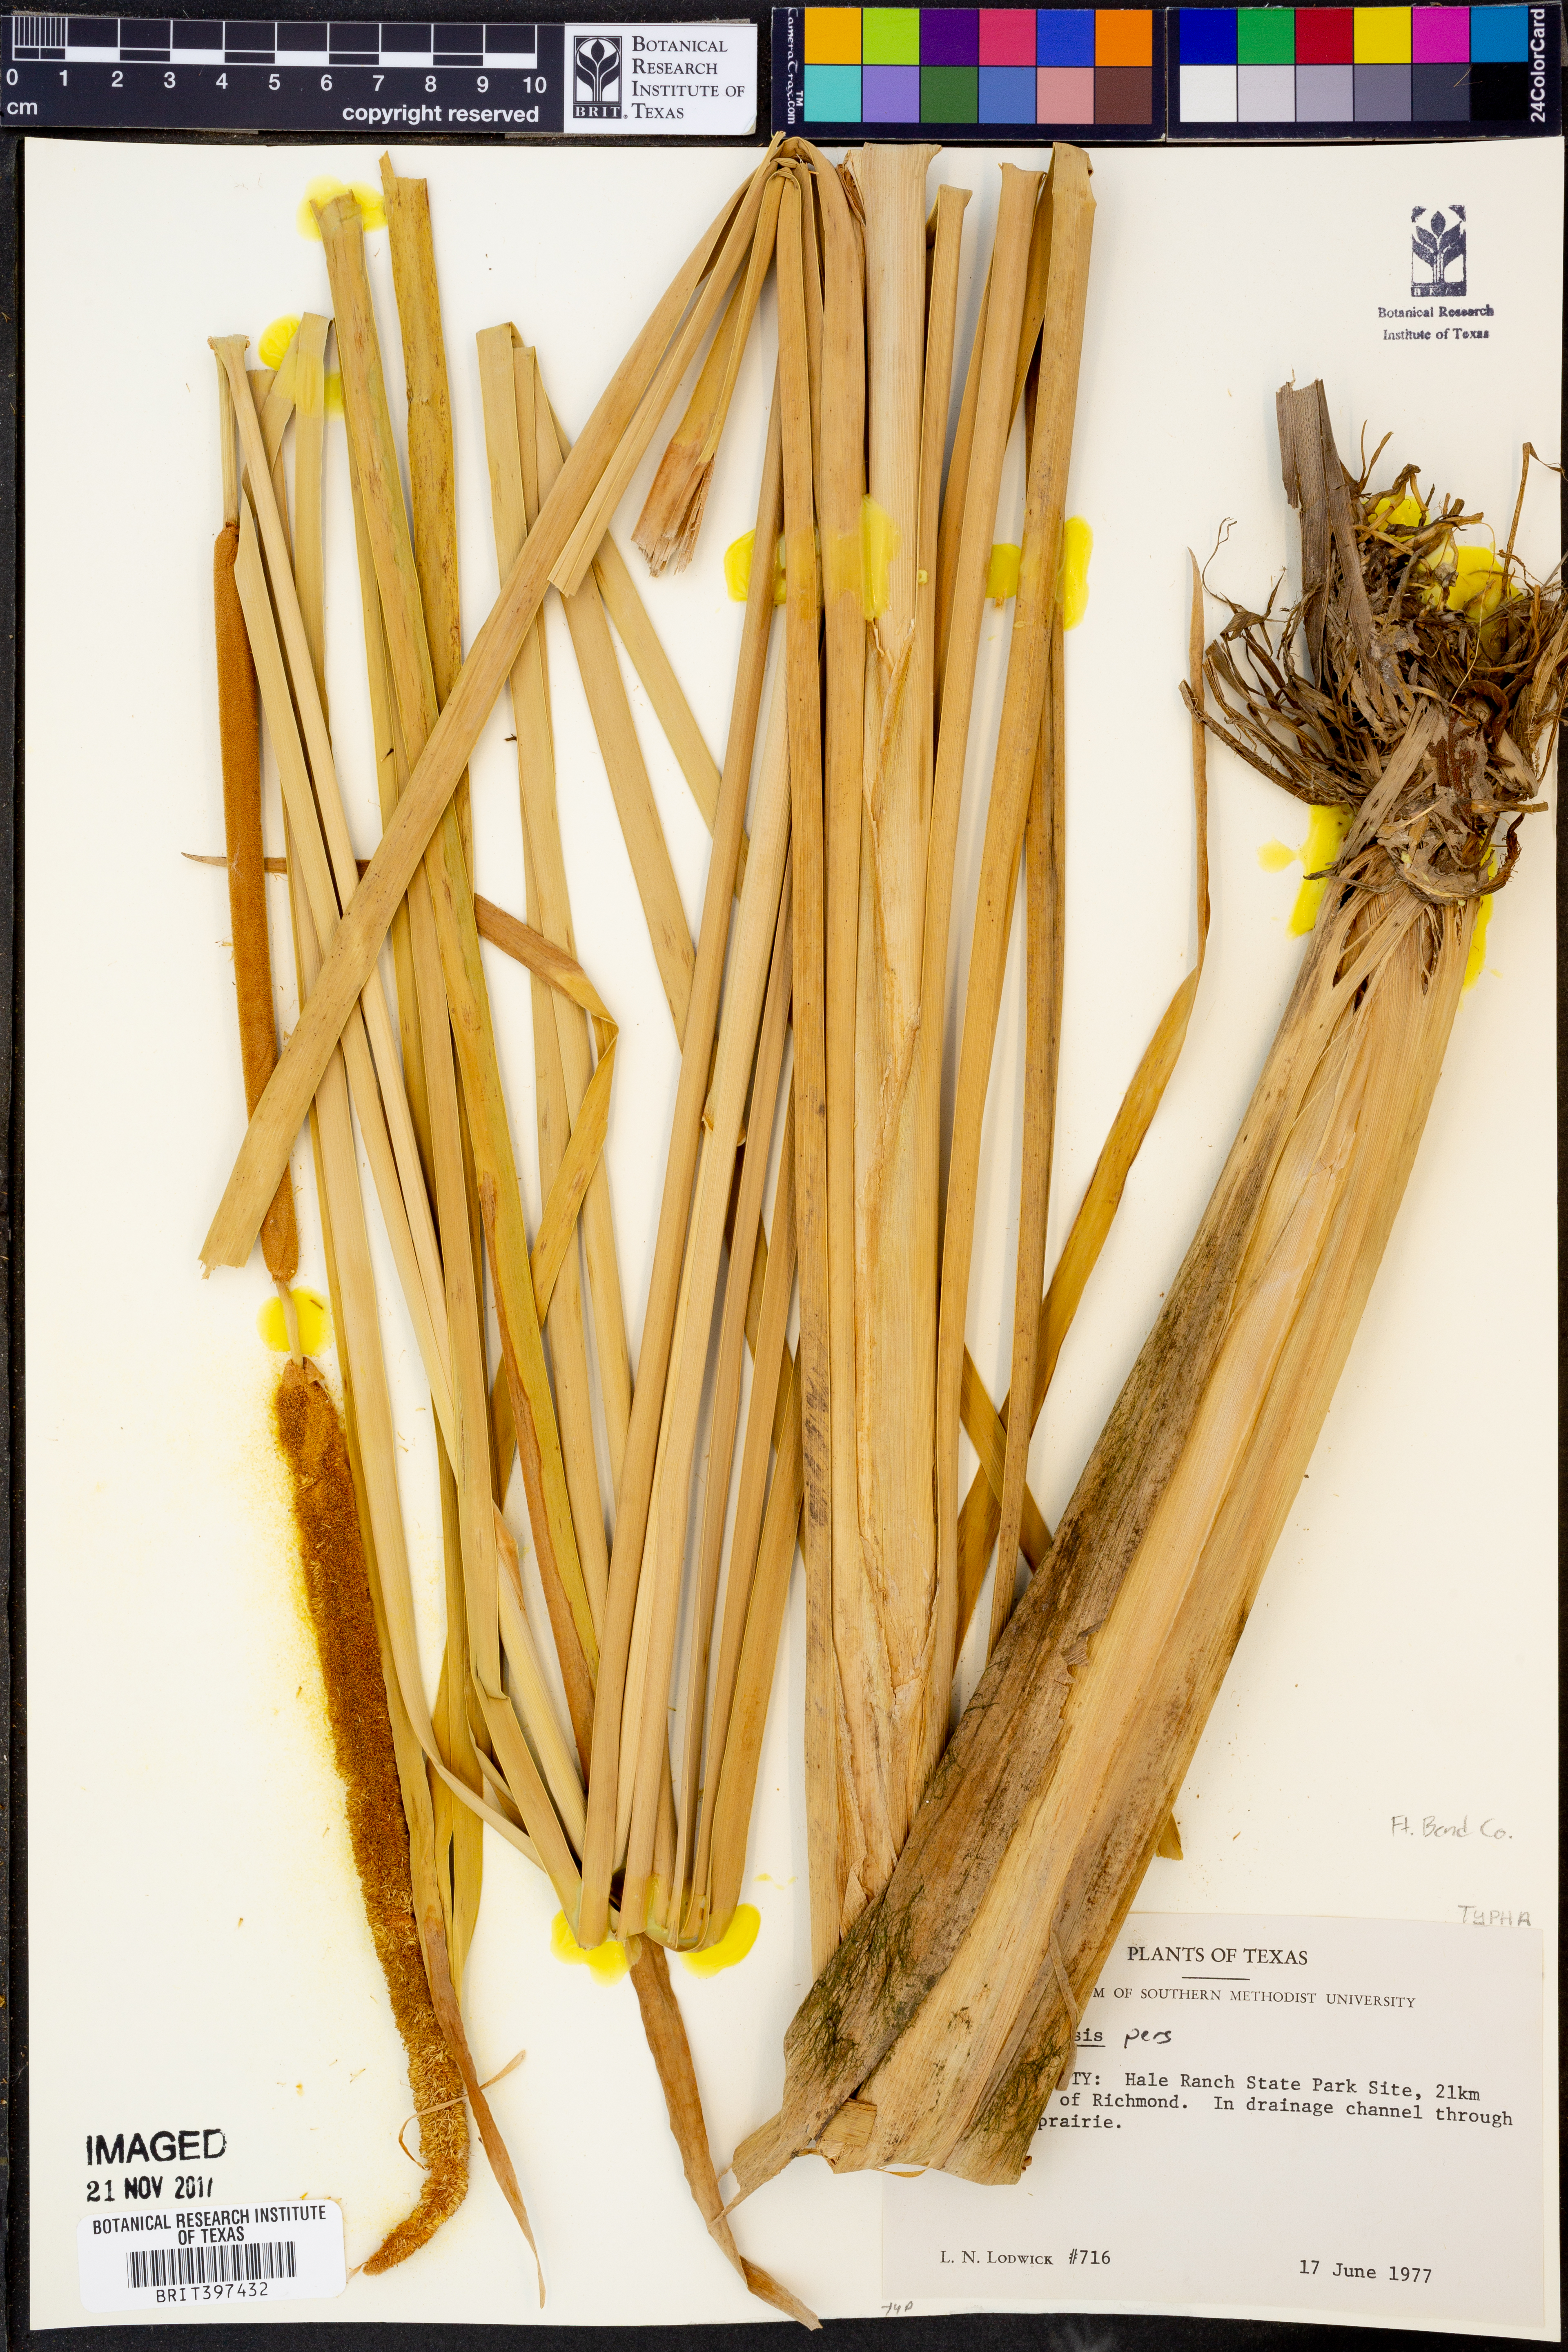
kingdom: Plantae
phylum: Tracheophyta
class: Liliopsida
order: Poales
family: Typhaceae
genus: Typha
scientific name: Typha domingensis
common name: Southern cattail
